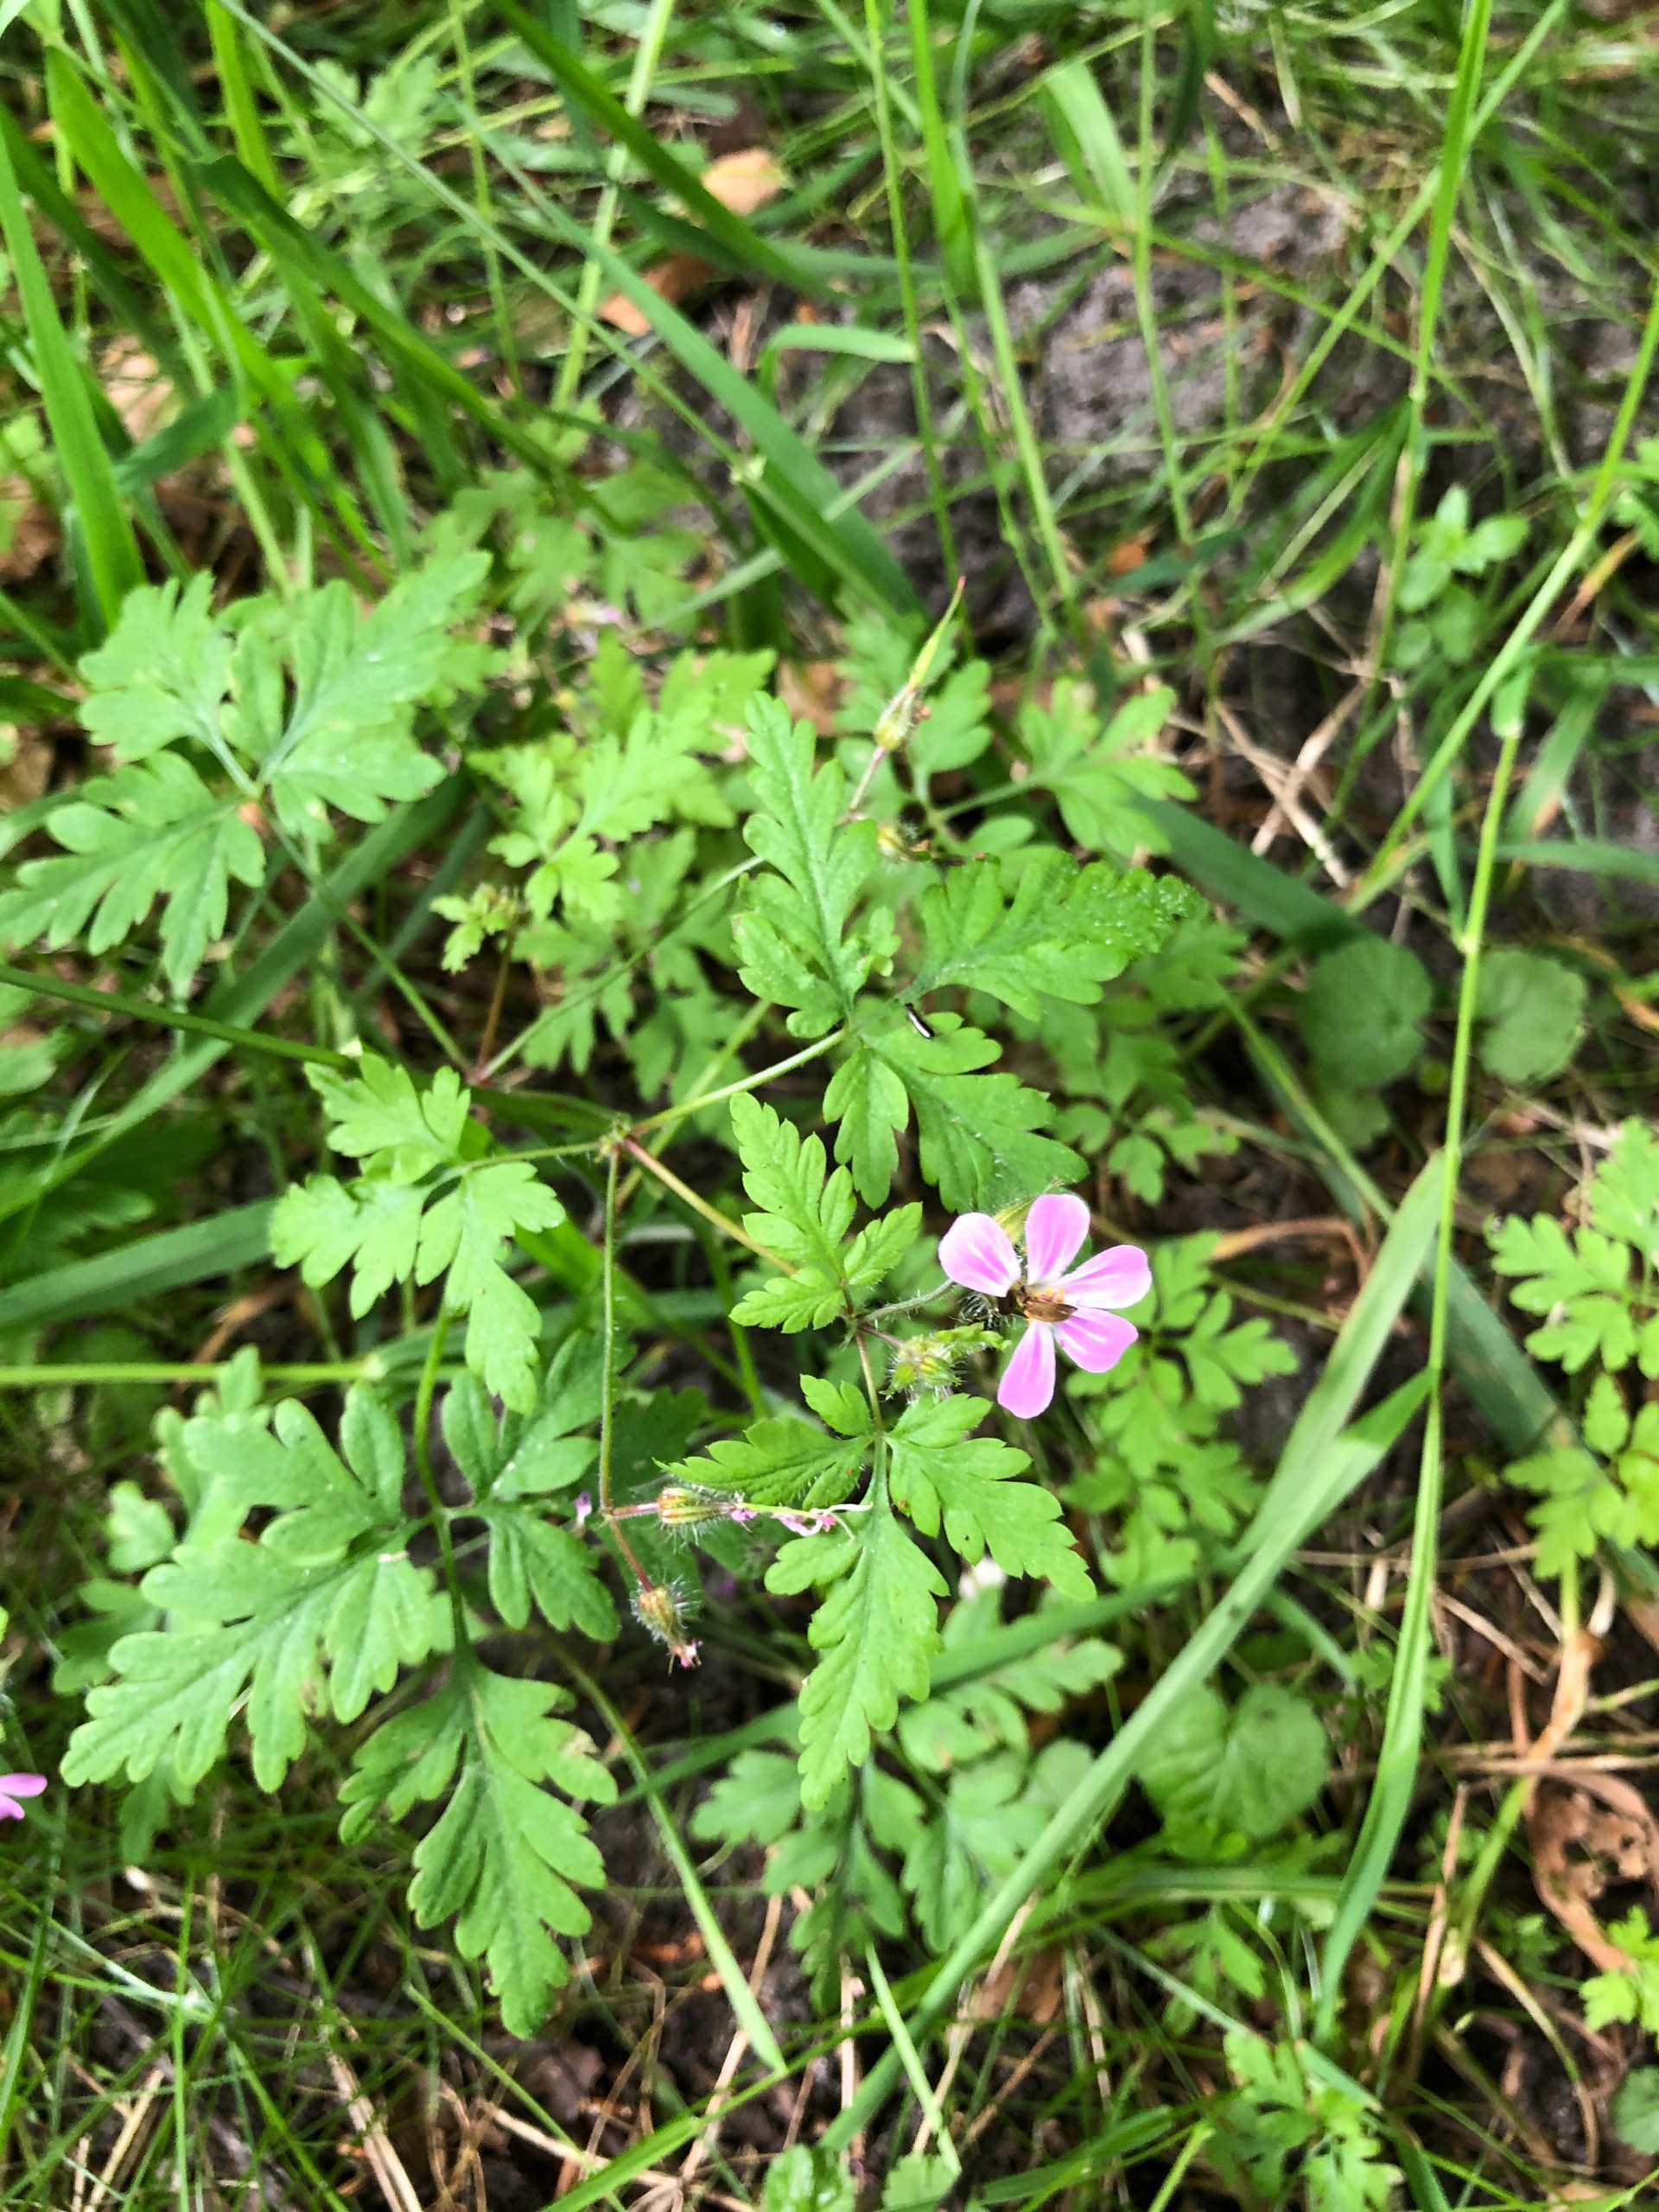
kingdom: Plantae
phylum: Tracheophyta
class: Magnoliopsida
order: Geraniales
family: Geraniaceae
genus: Geranium
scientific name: Geranium robertianum
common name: Stinkende storkenæb
